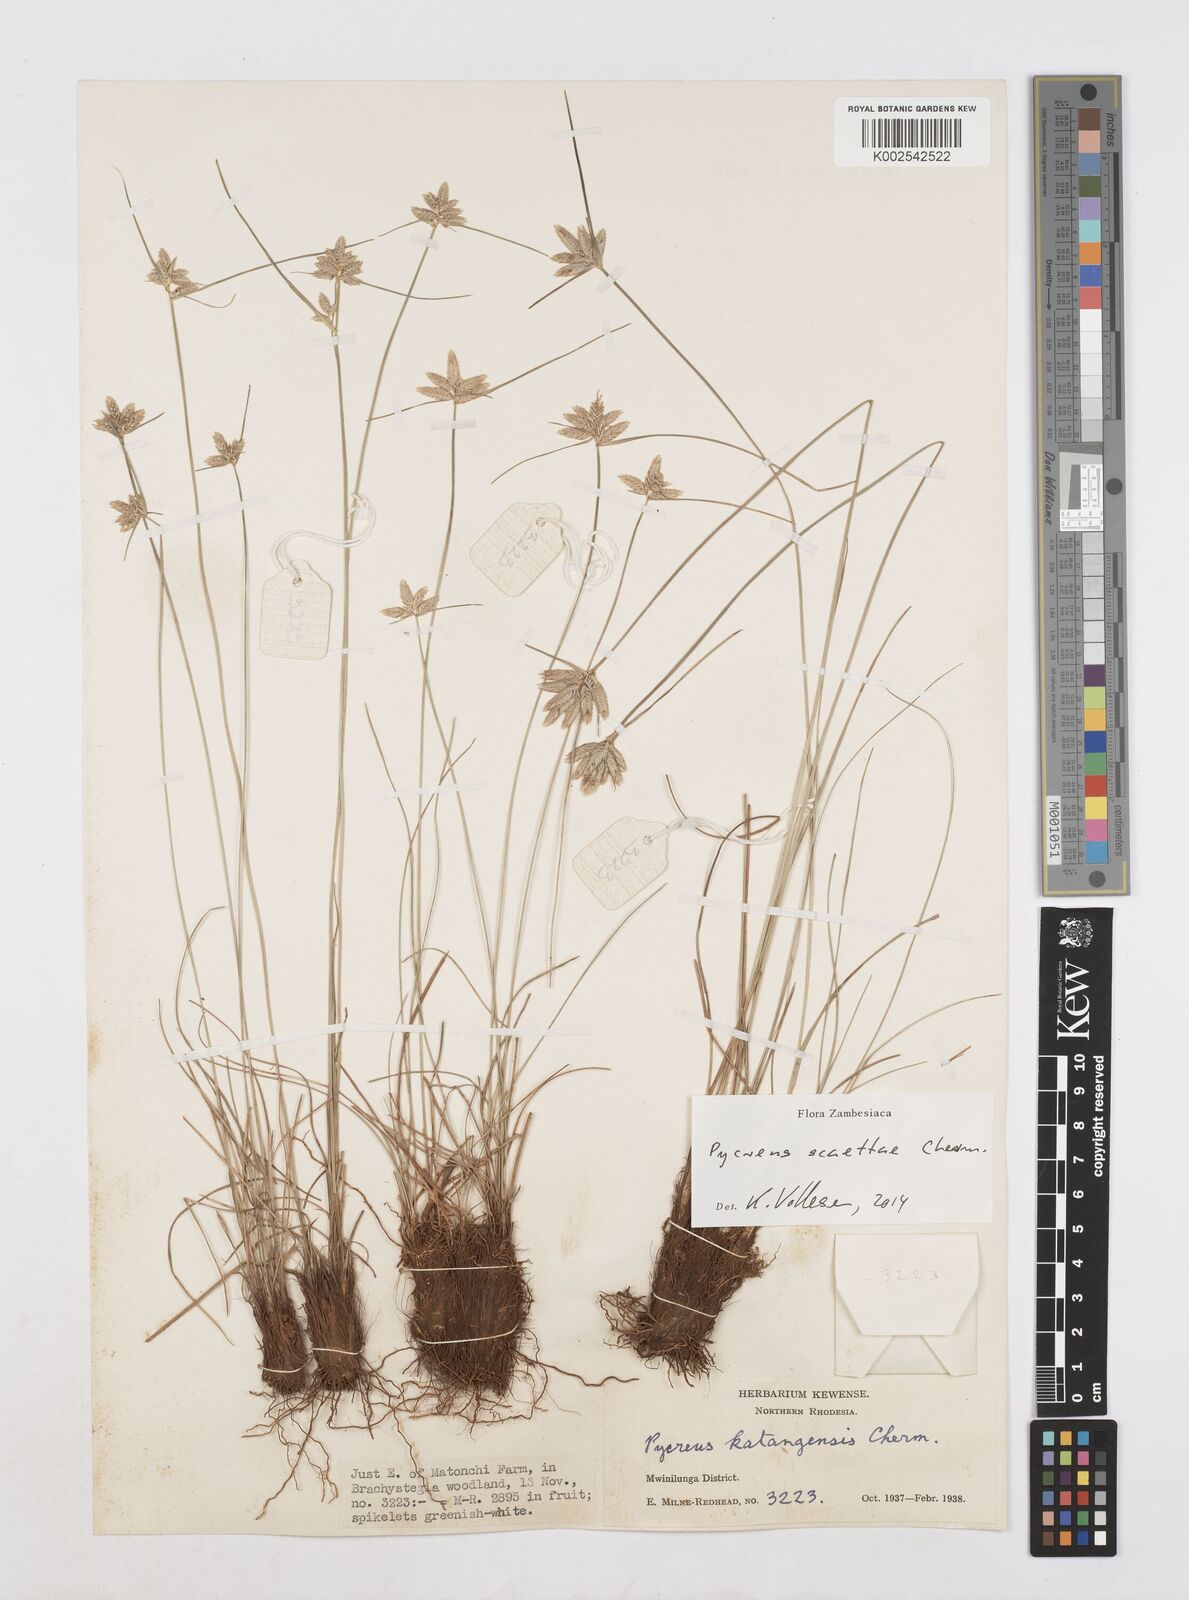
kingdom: Plantae
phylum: Tracheophyta
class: Liliopsida
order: Poales
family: Cyperaceae
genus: Cyperus
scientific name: Cyperus scaettae
